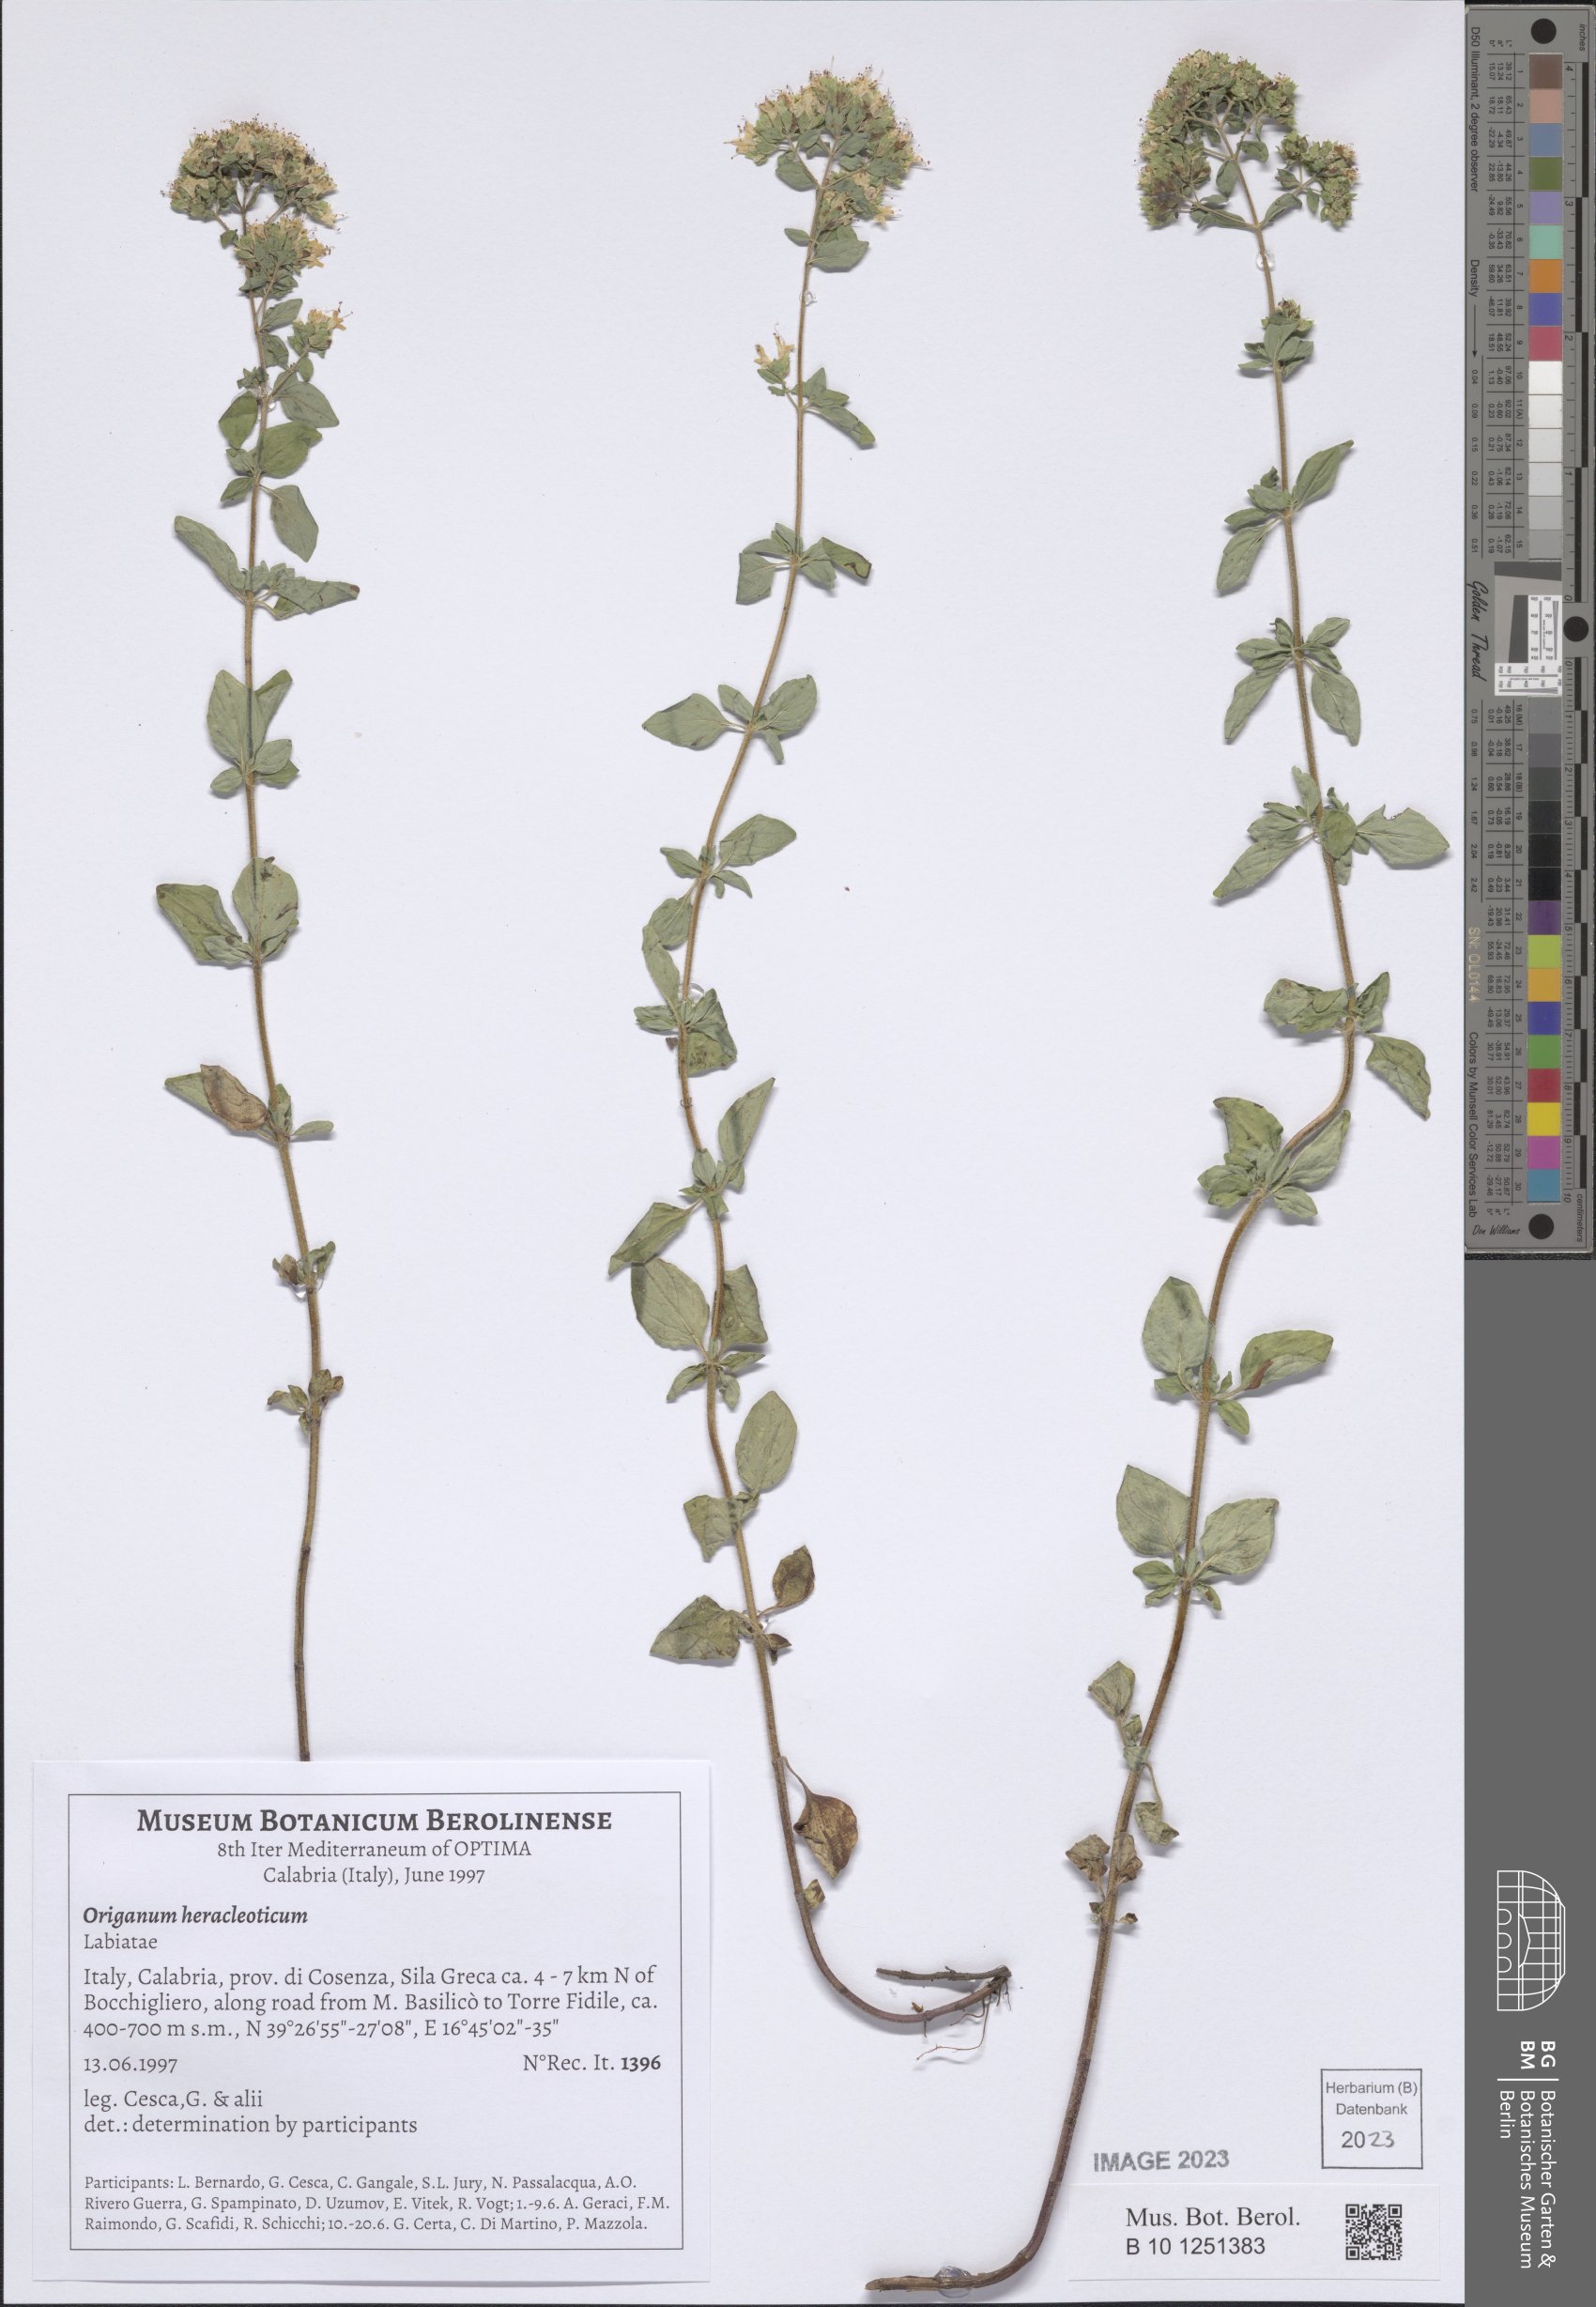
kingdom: Plantae
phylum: Tracheophyta
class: Magnoliopsida
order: Lamiales
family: Lamiaceae
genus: Origanum
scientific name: Origanum vulgare
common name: Wild marjoram
